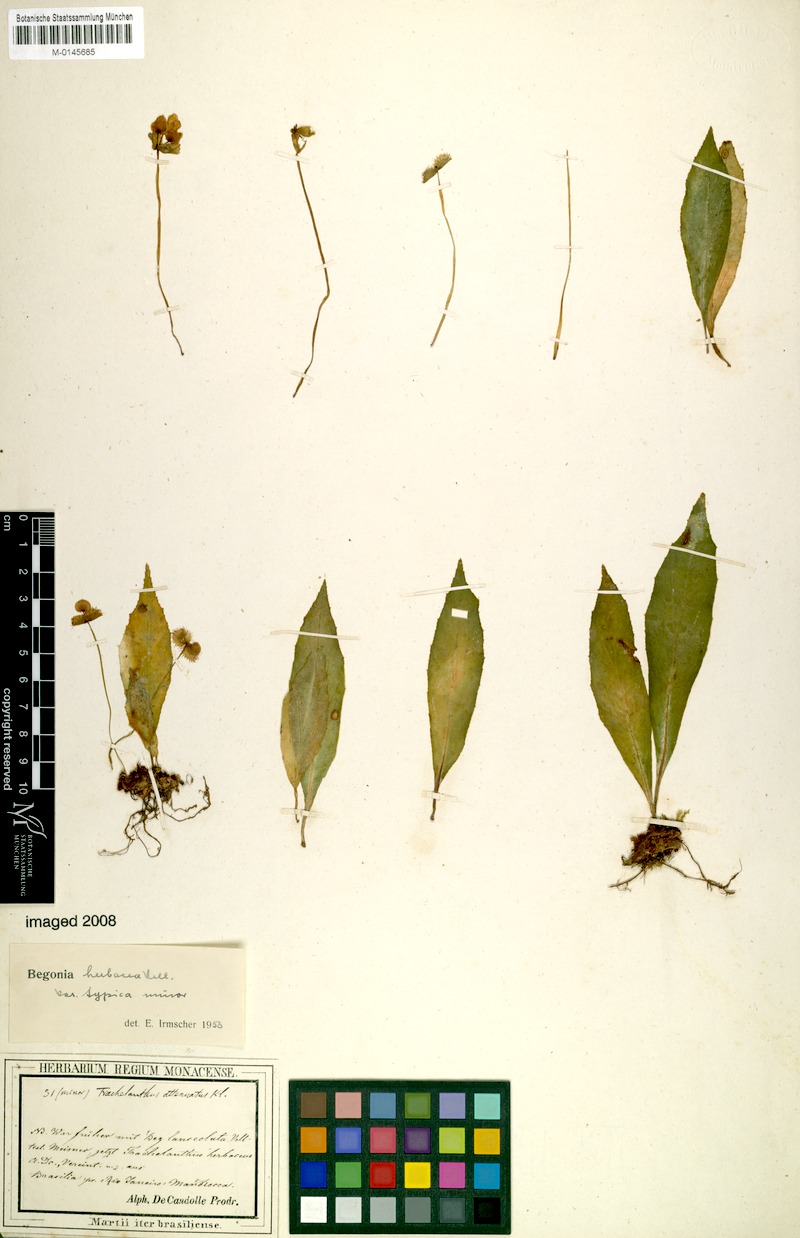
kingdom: Plantae
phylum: Tracheophyta
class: Magnoliopsida
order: Cucurbitales
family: Begoniaceae
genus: Begonia
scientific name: Begonia herbacea
